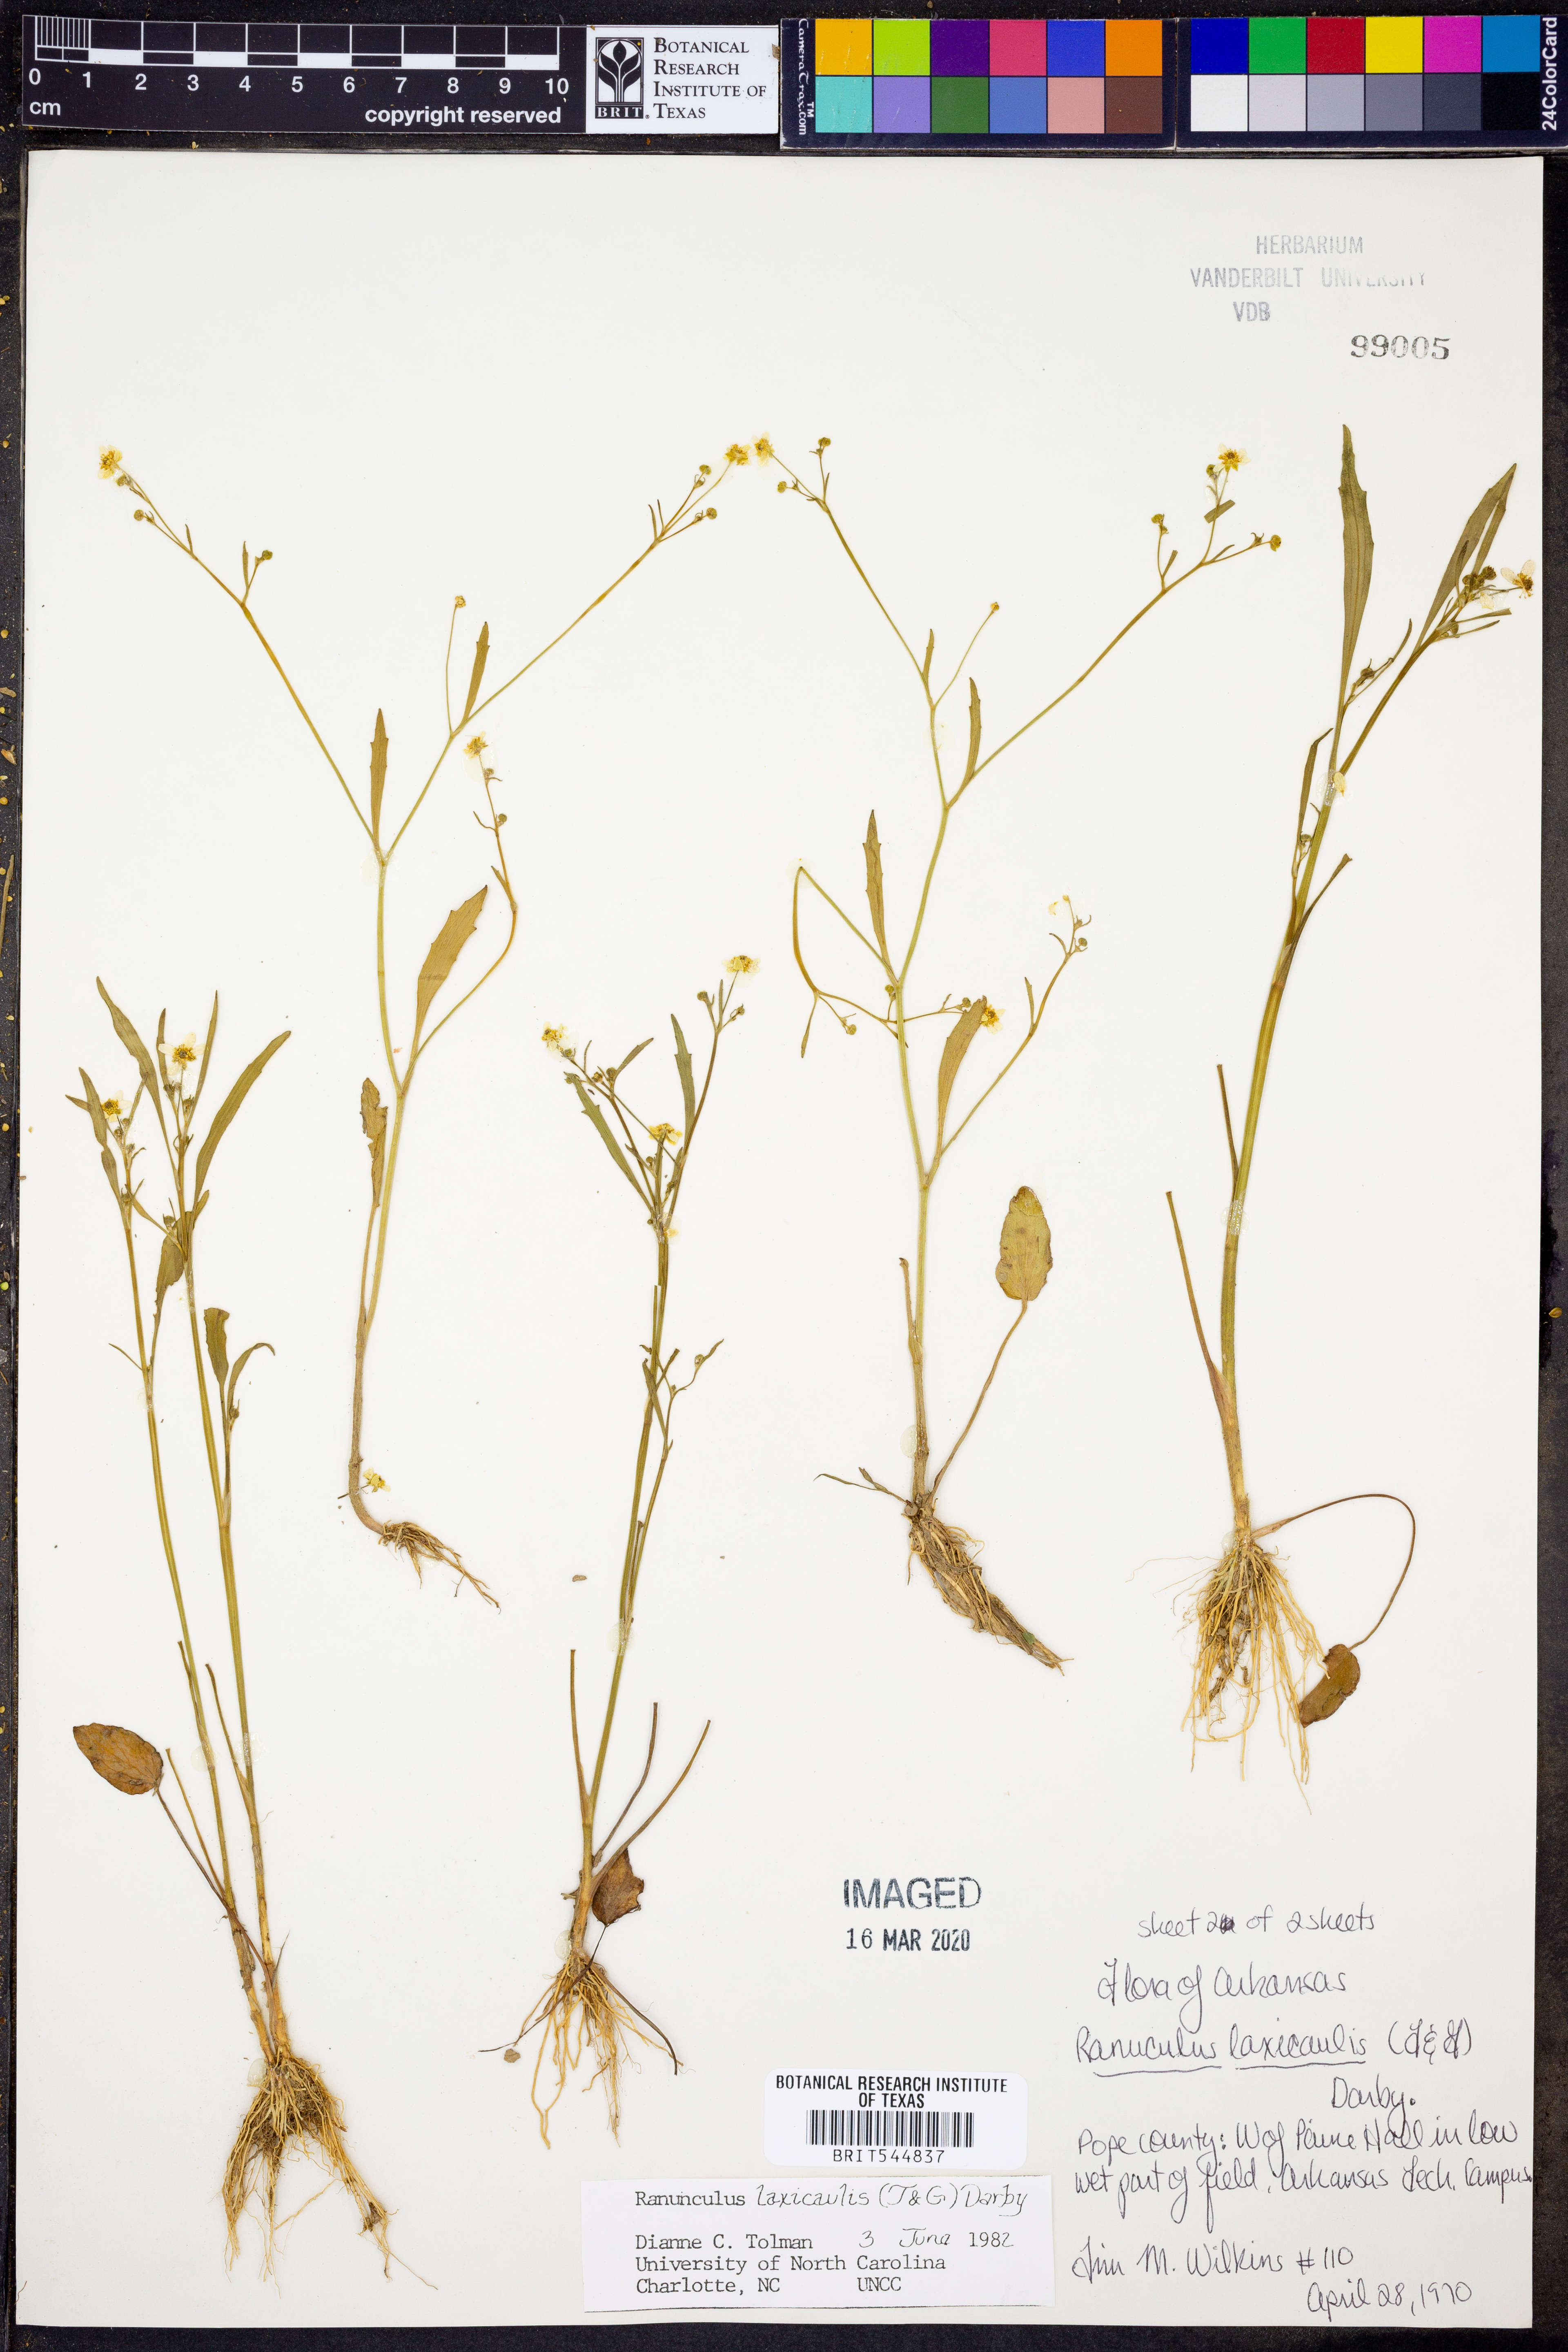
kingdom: Plantae
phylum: Tracheophyta
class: Magnoliopsida
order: Ranunculales
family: Ranunculaceae
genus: Ranunculus
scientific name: Ranunculus laxicaulis
